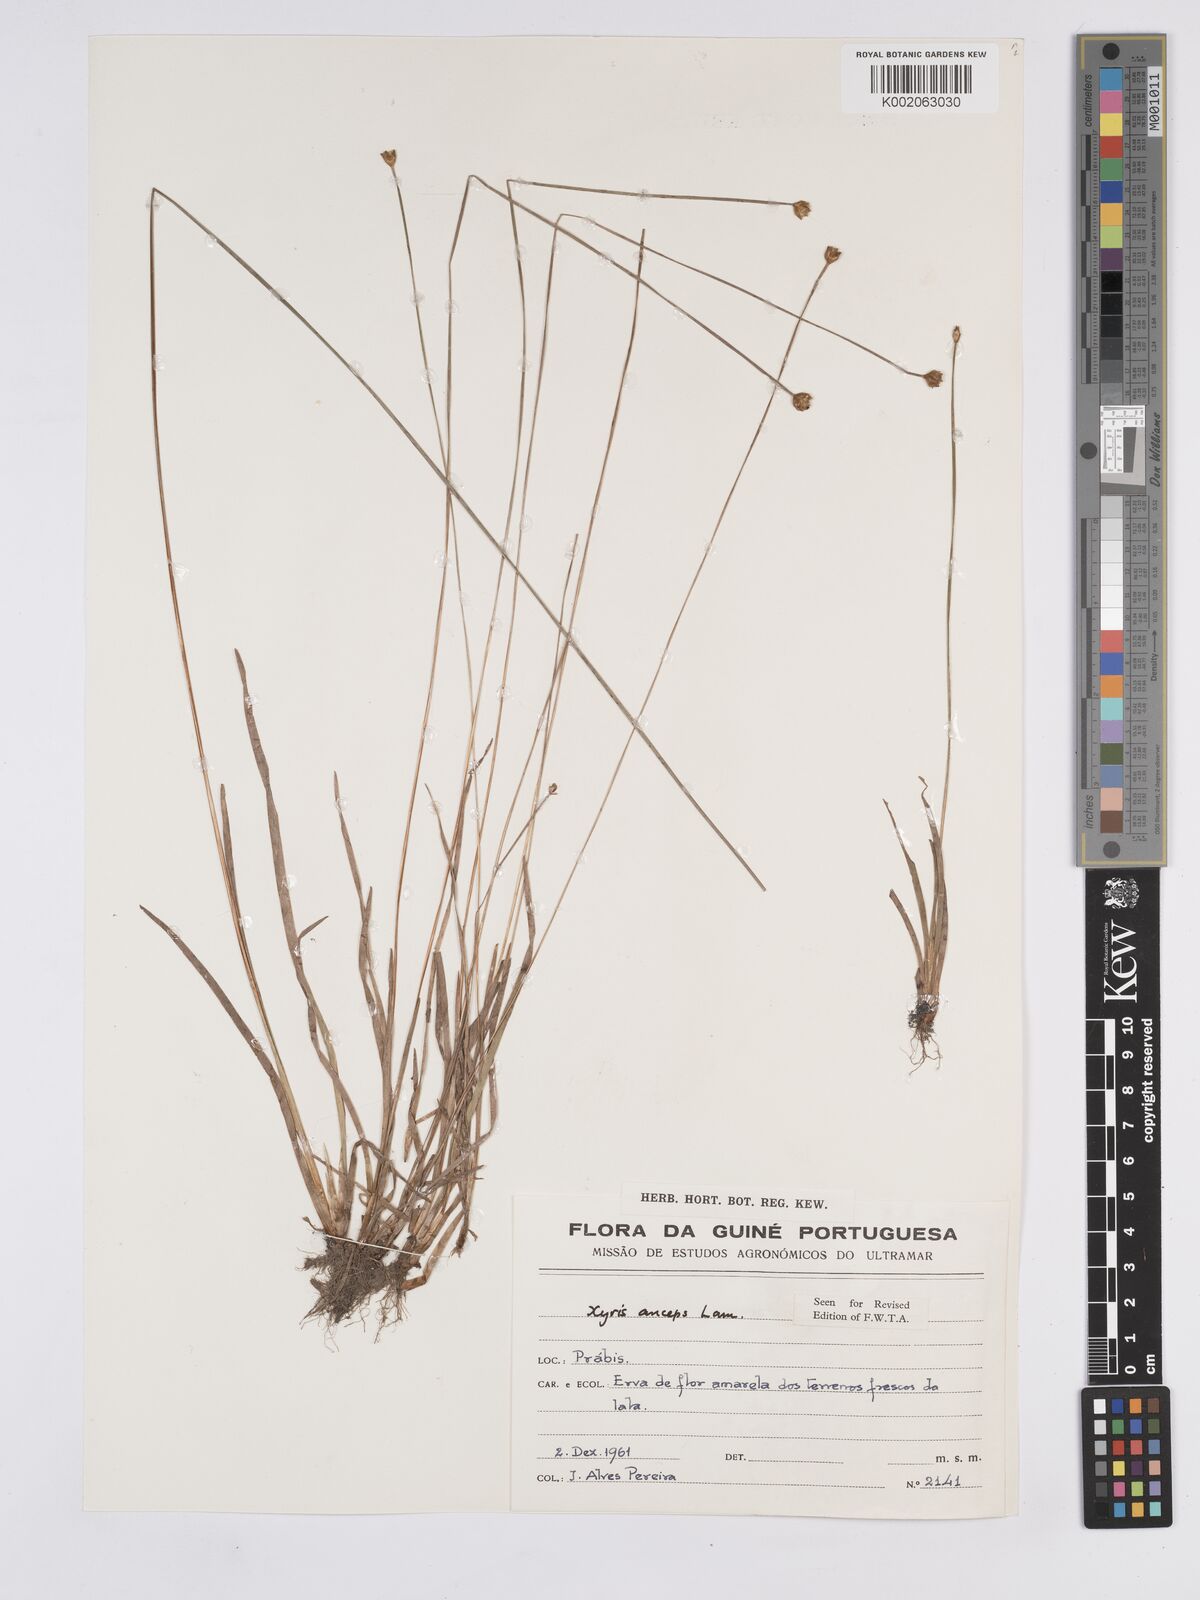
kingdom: Plantae
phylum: Tracheophyta
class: Liliopsida
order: Poales
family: Xyridaceae
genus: Xyris
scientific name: Xyris anceps
